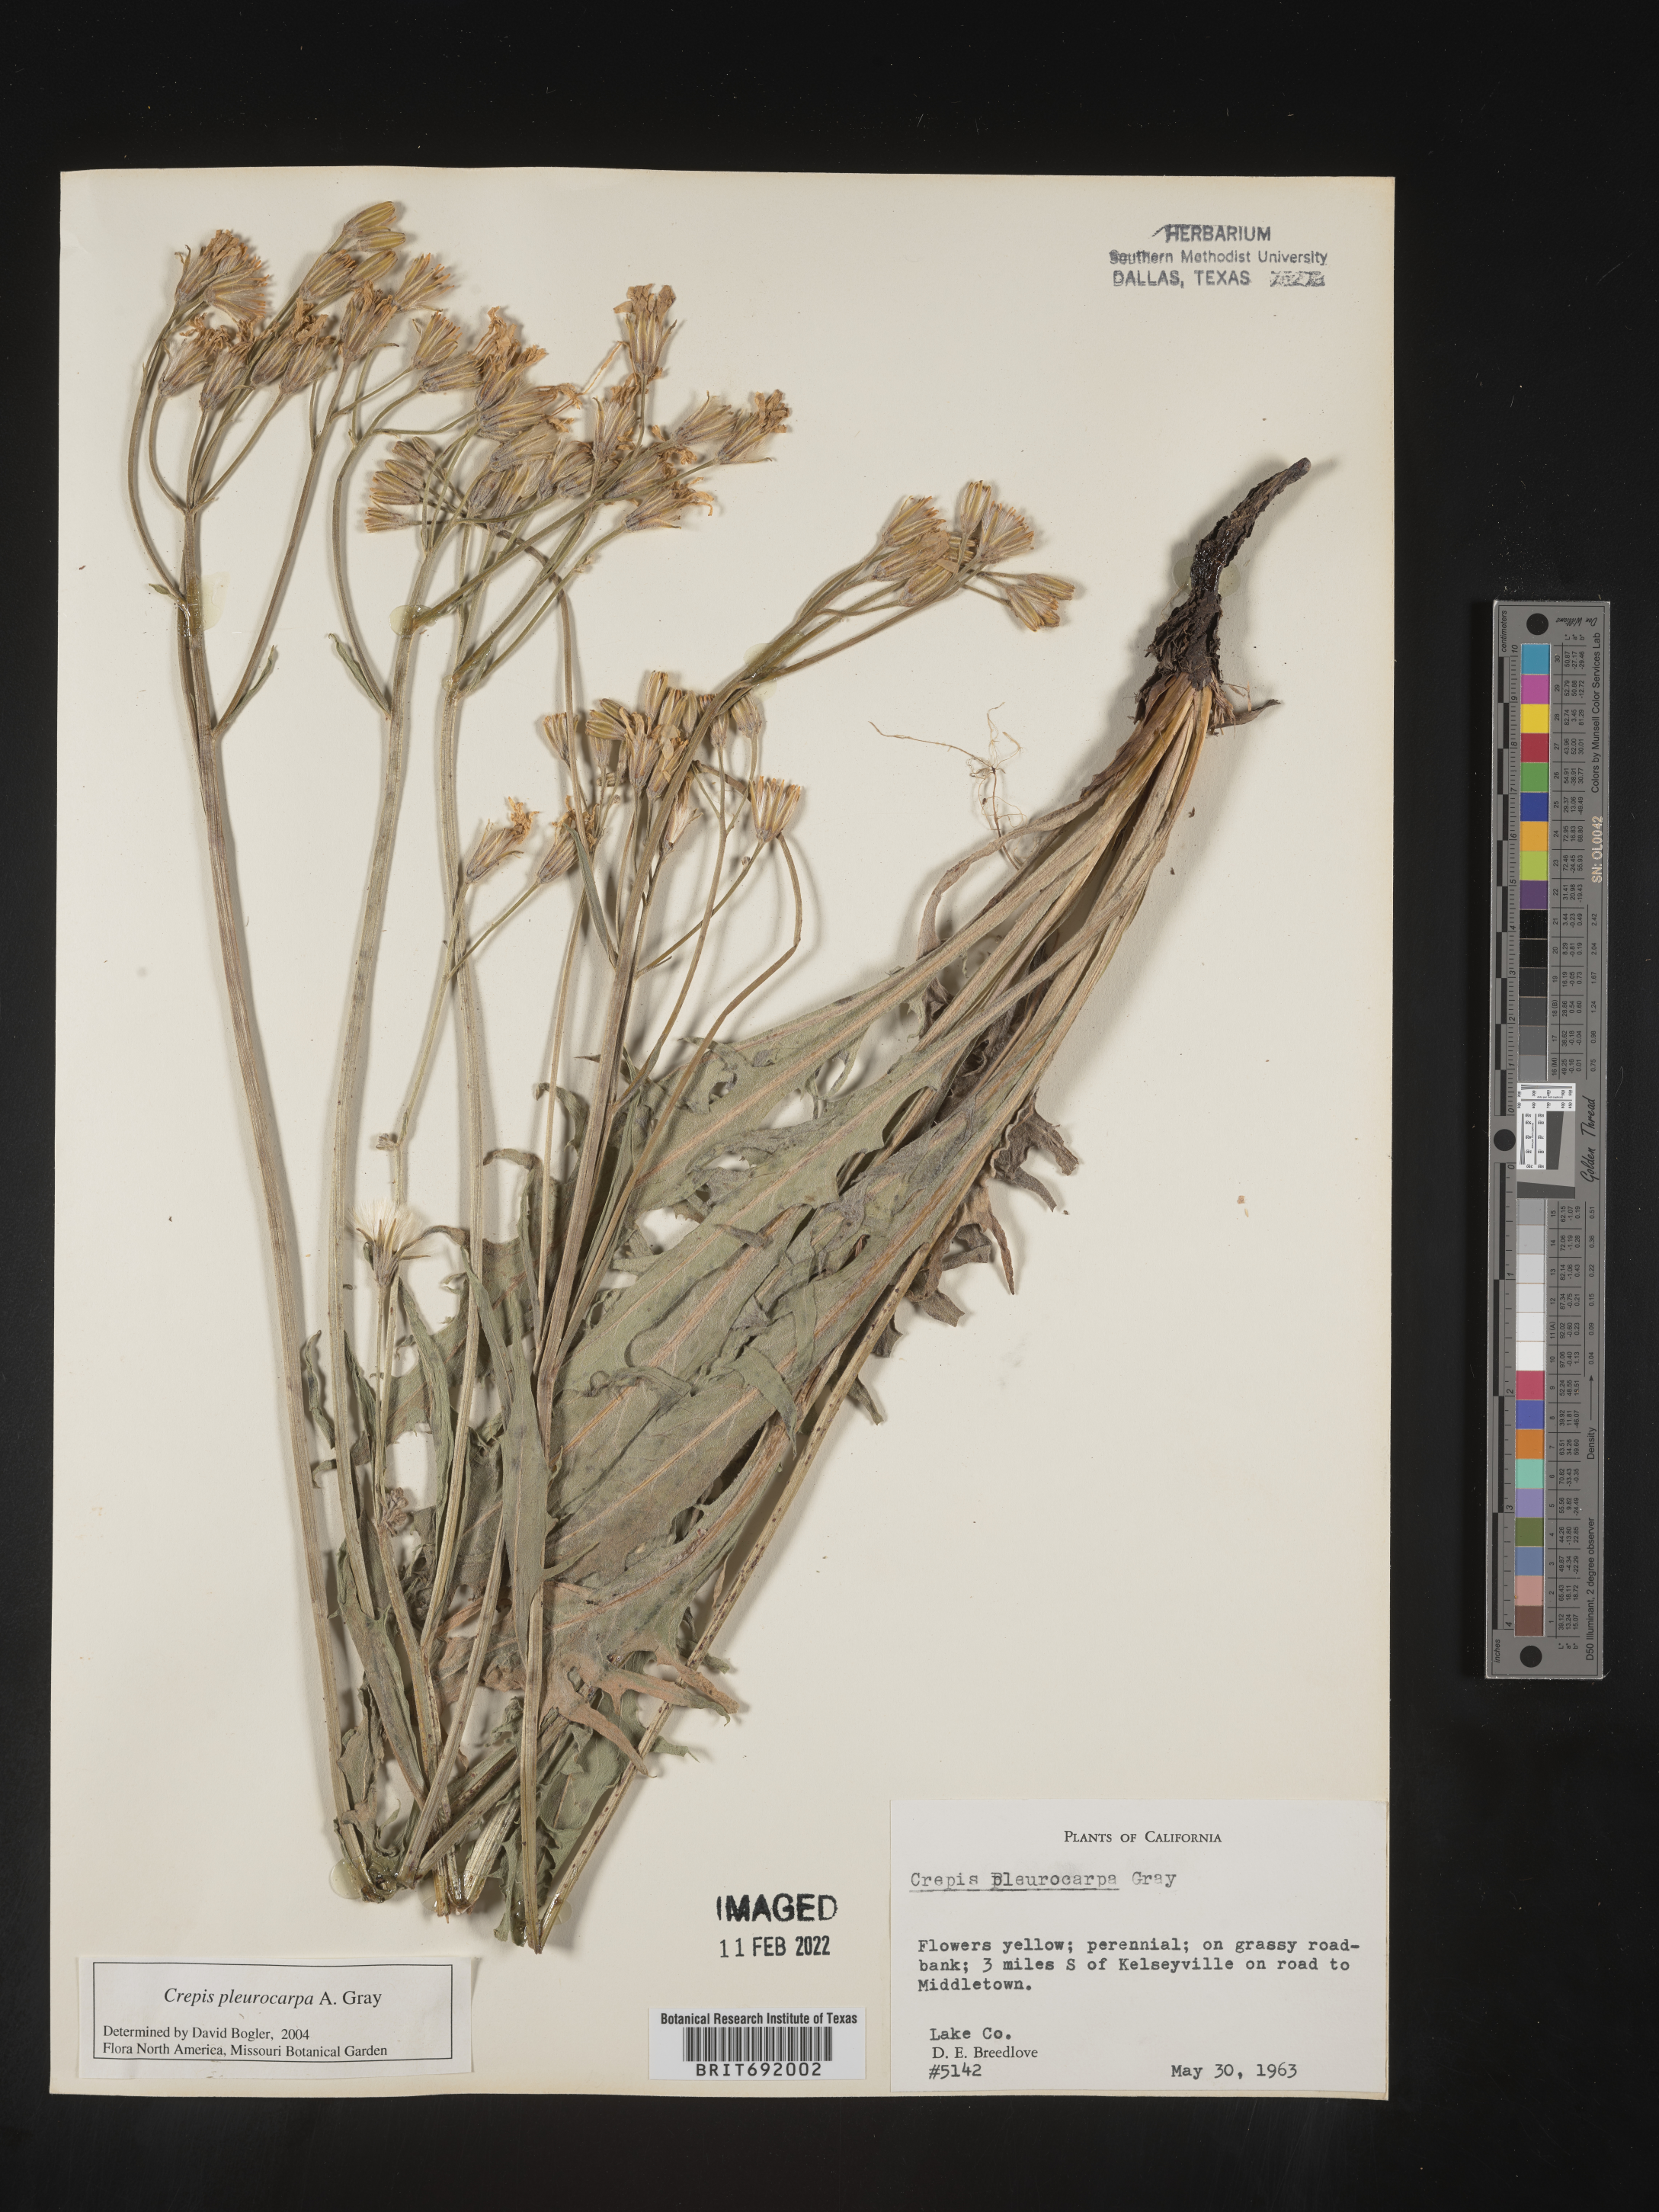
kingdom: Plantae
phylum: Tracheophyta
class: Magnoliopsida
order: Asterales
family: Asteraceae
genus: Crepis
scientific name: Crepis pleurocarpa
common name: Naked hawk's-beard
